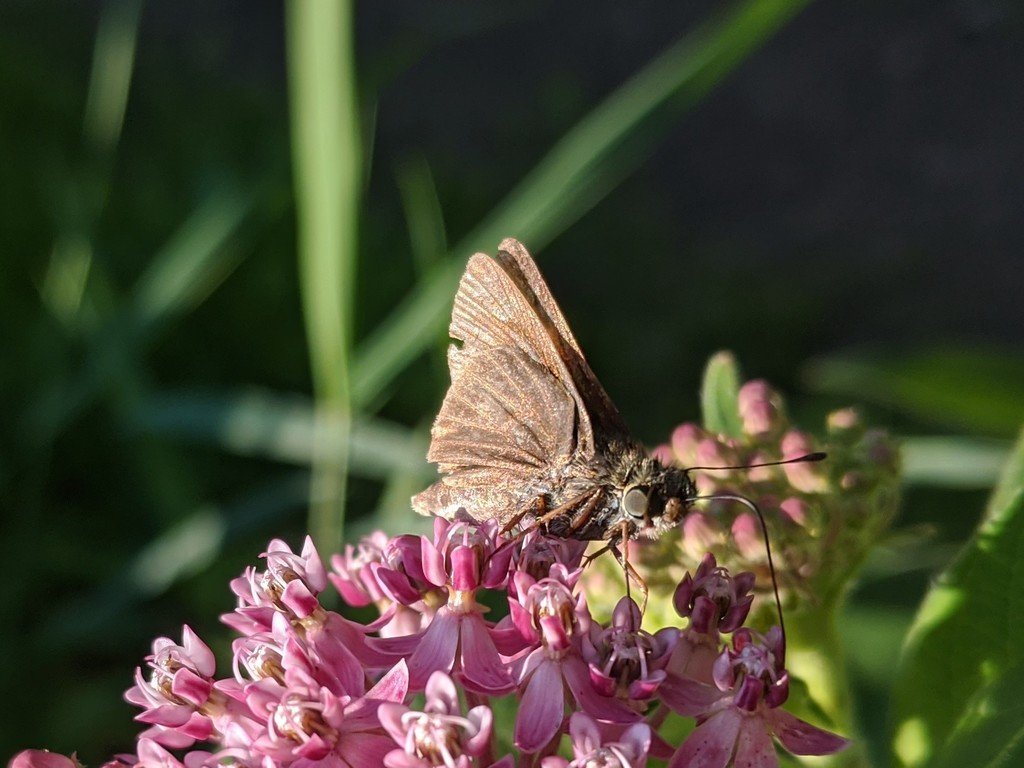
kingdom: Animalia
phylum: Arthropoda
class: Insecta
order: Lepidoptera
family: Hesperiidae
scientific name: Hesperiidae
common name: Skippers
